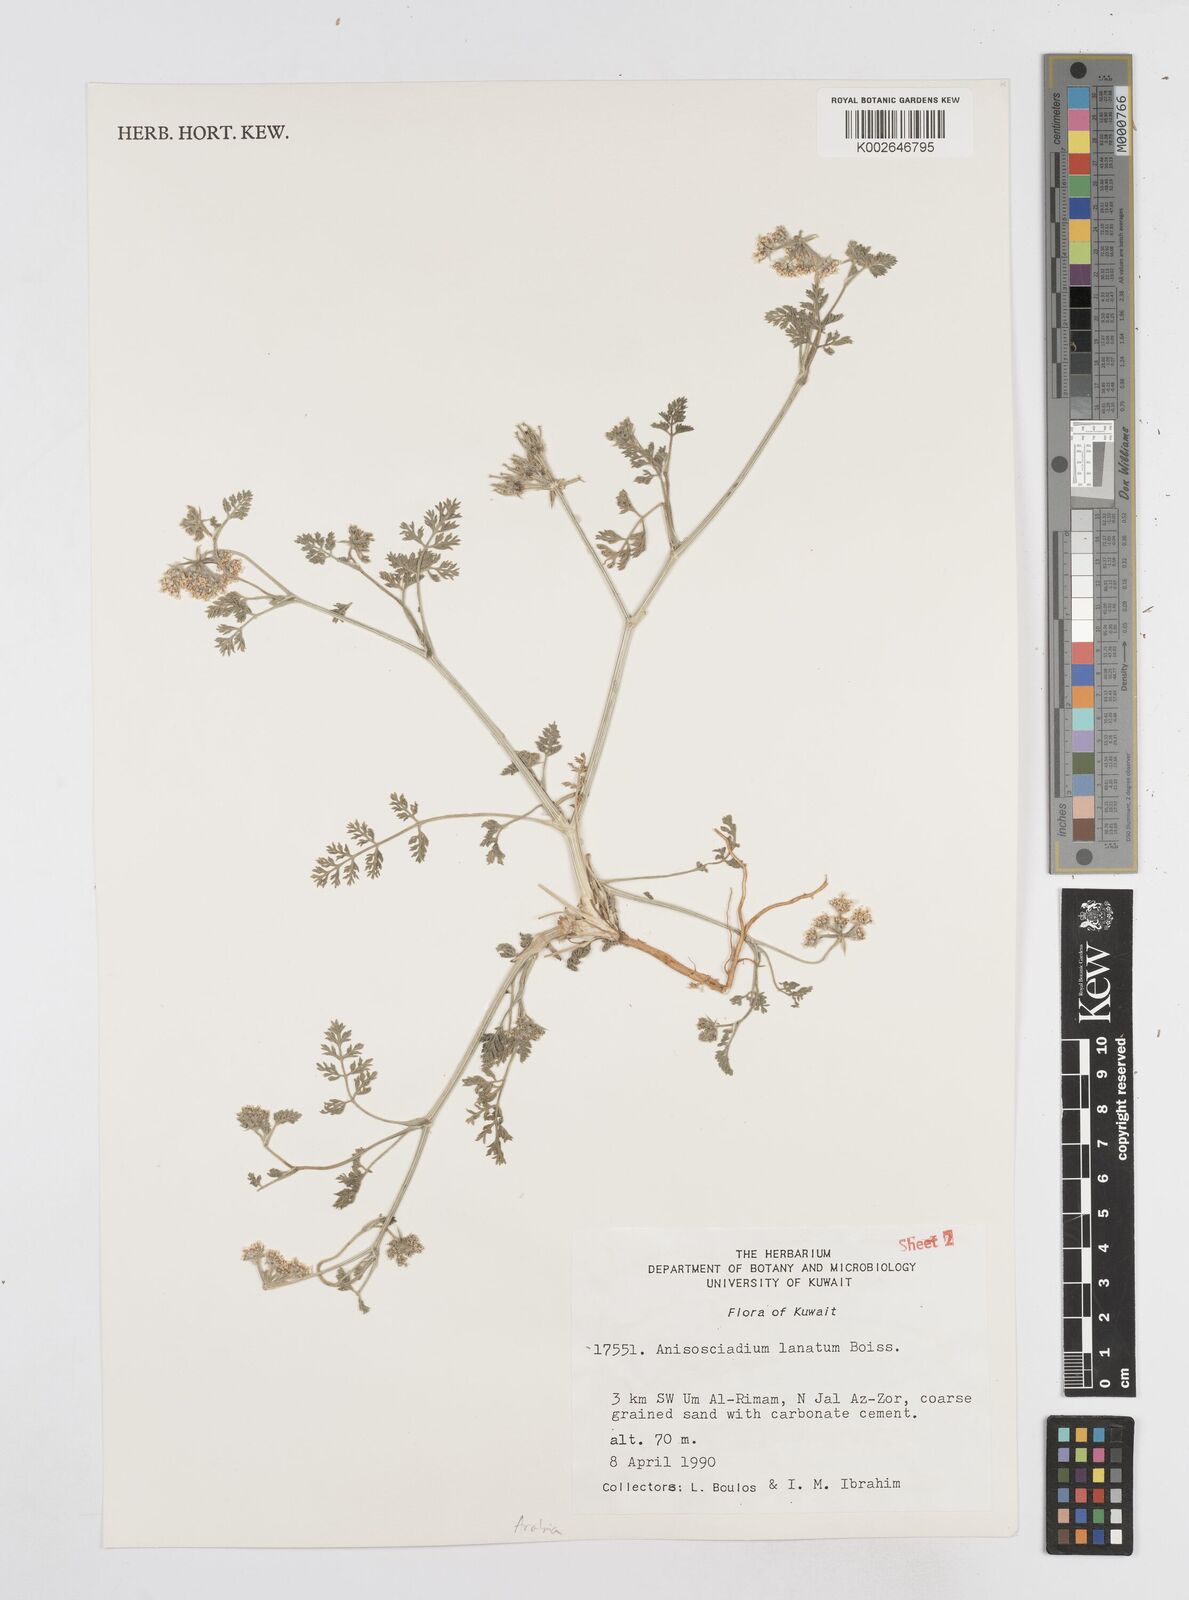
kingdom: Plantae
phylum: Tracheophyta
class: Magnoliopsida
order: Apiales
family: Apiaceae
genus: Anisosciadium
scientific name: Anisosciadium lanatum
